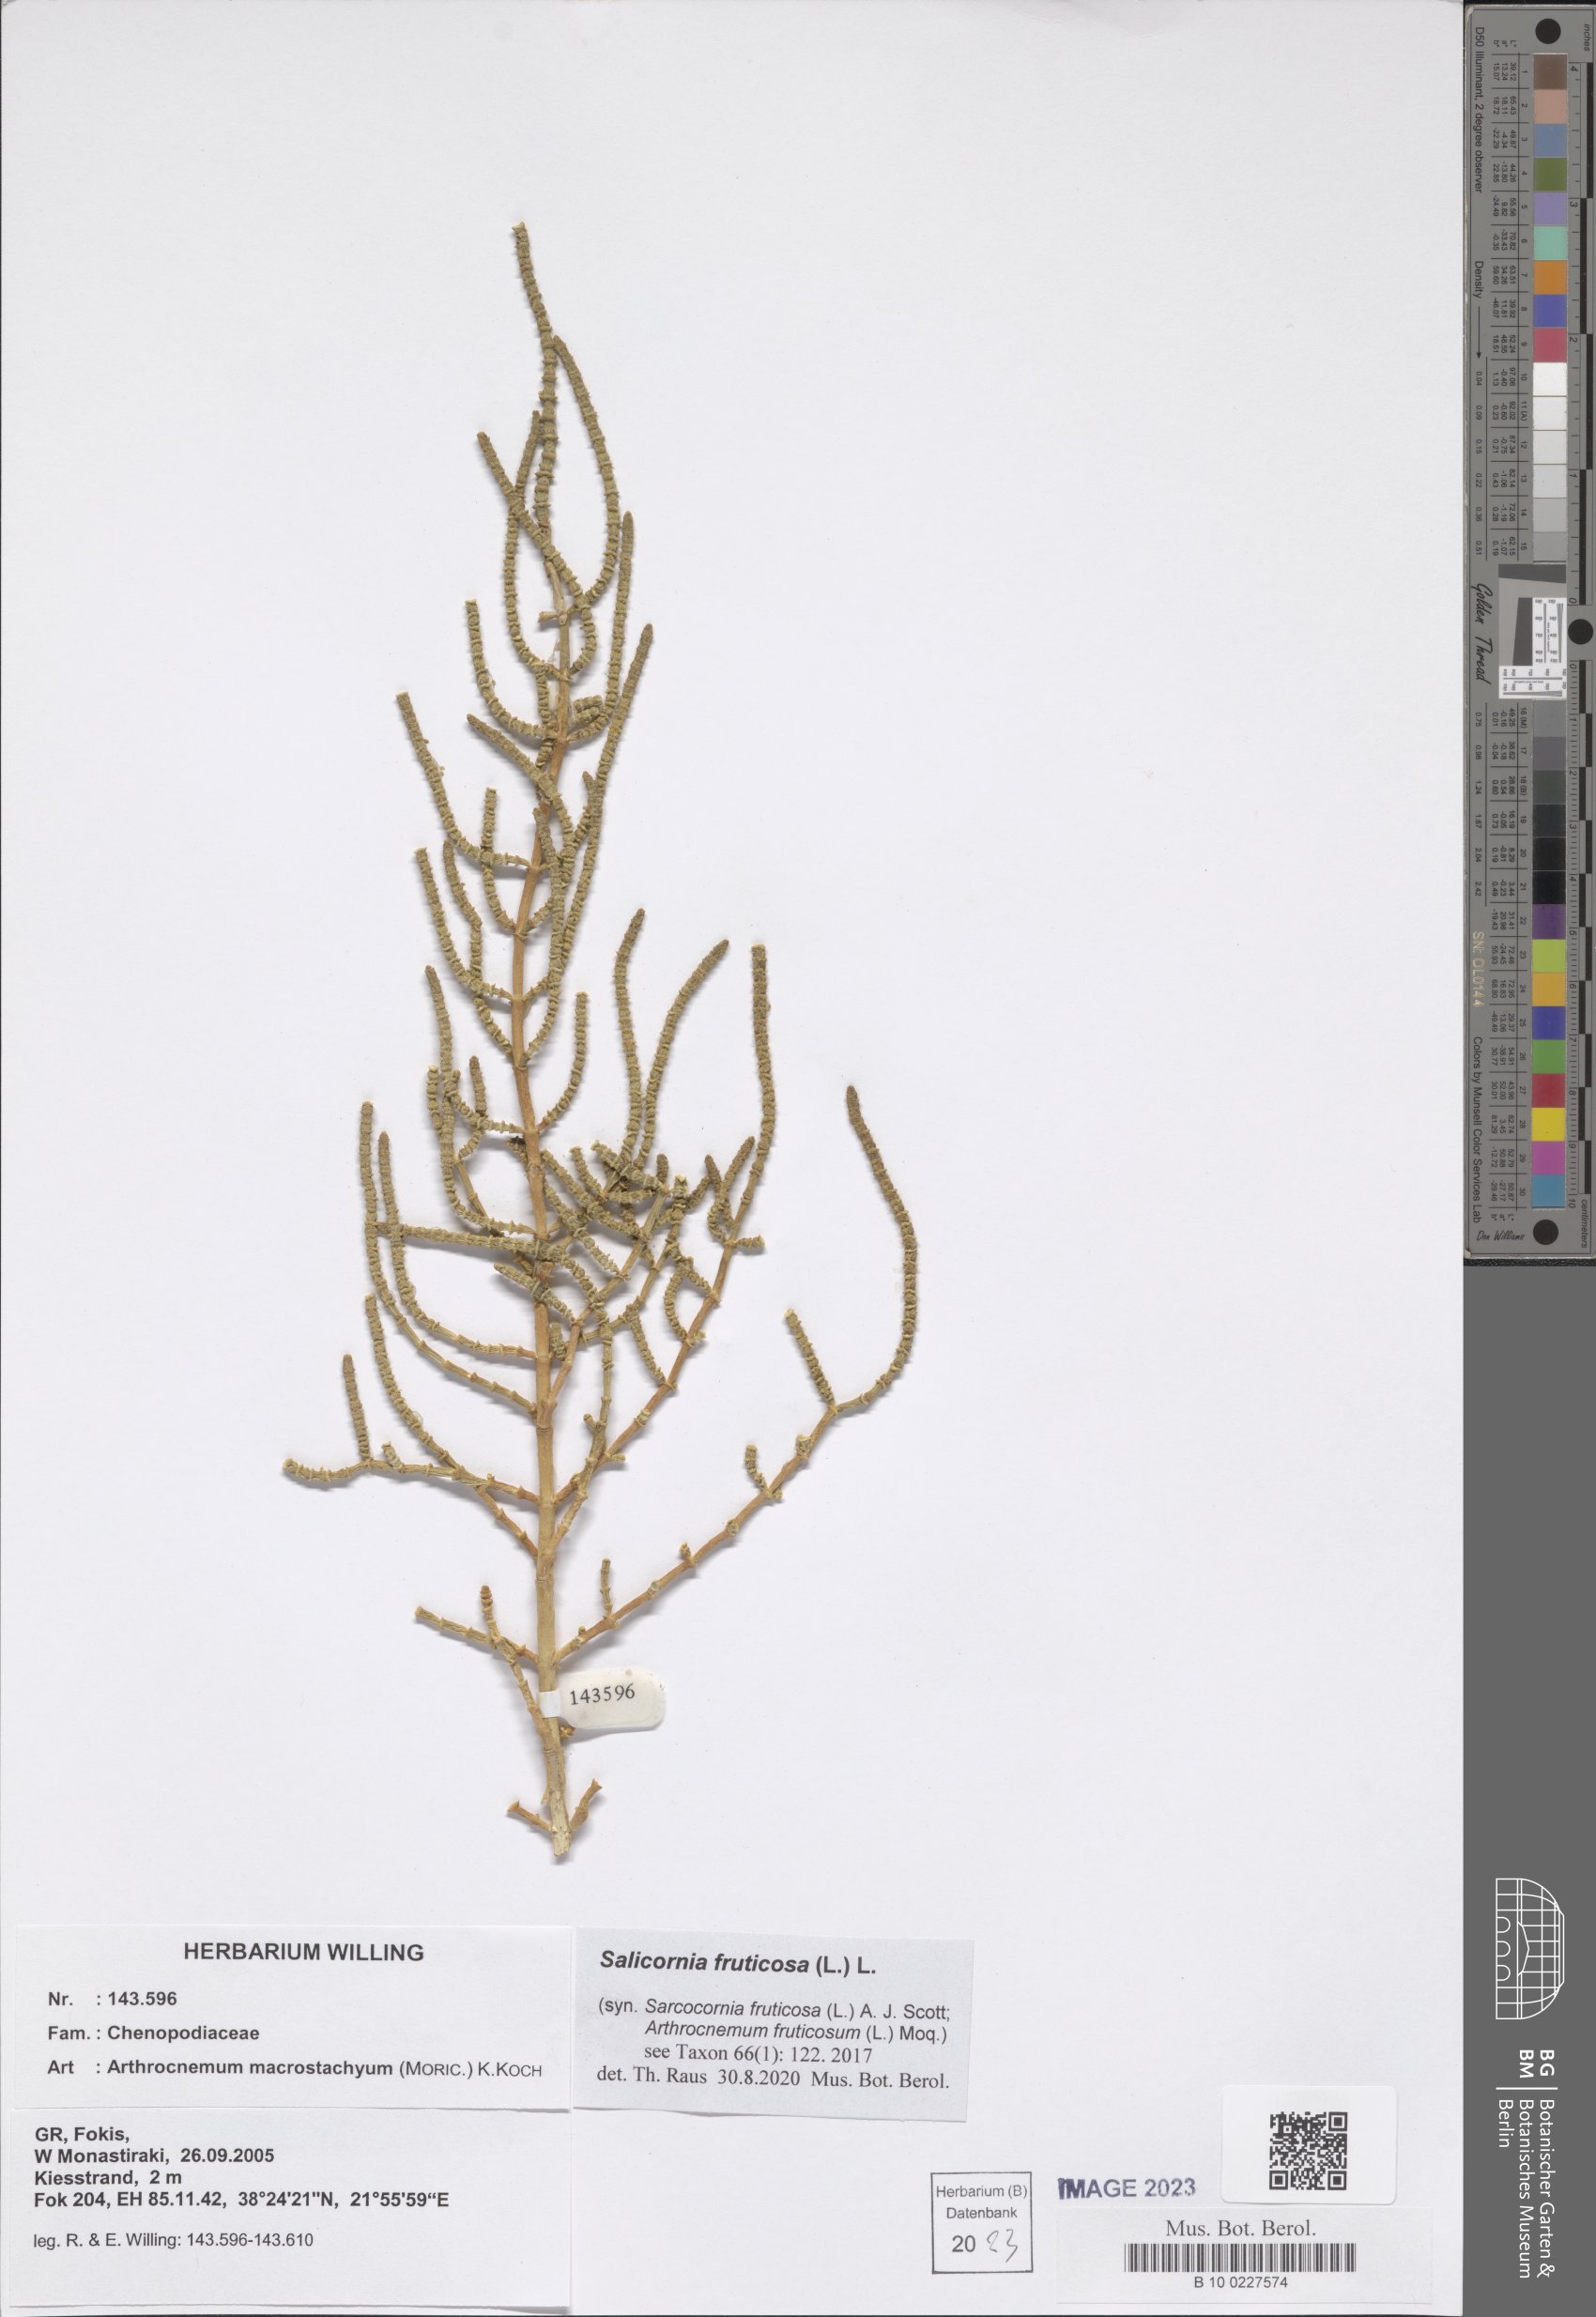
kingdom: Plantae
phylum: Tracheophyta
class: Magnoliopsida
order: Caryophyllales
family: Amaranthaceae
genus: Salicornia
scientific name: Salicornia fruticosa
